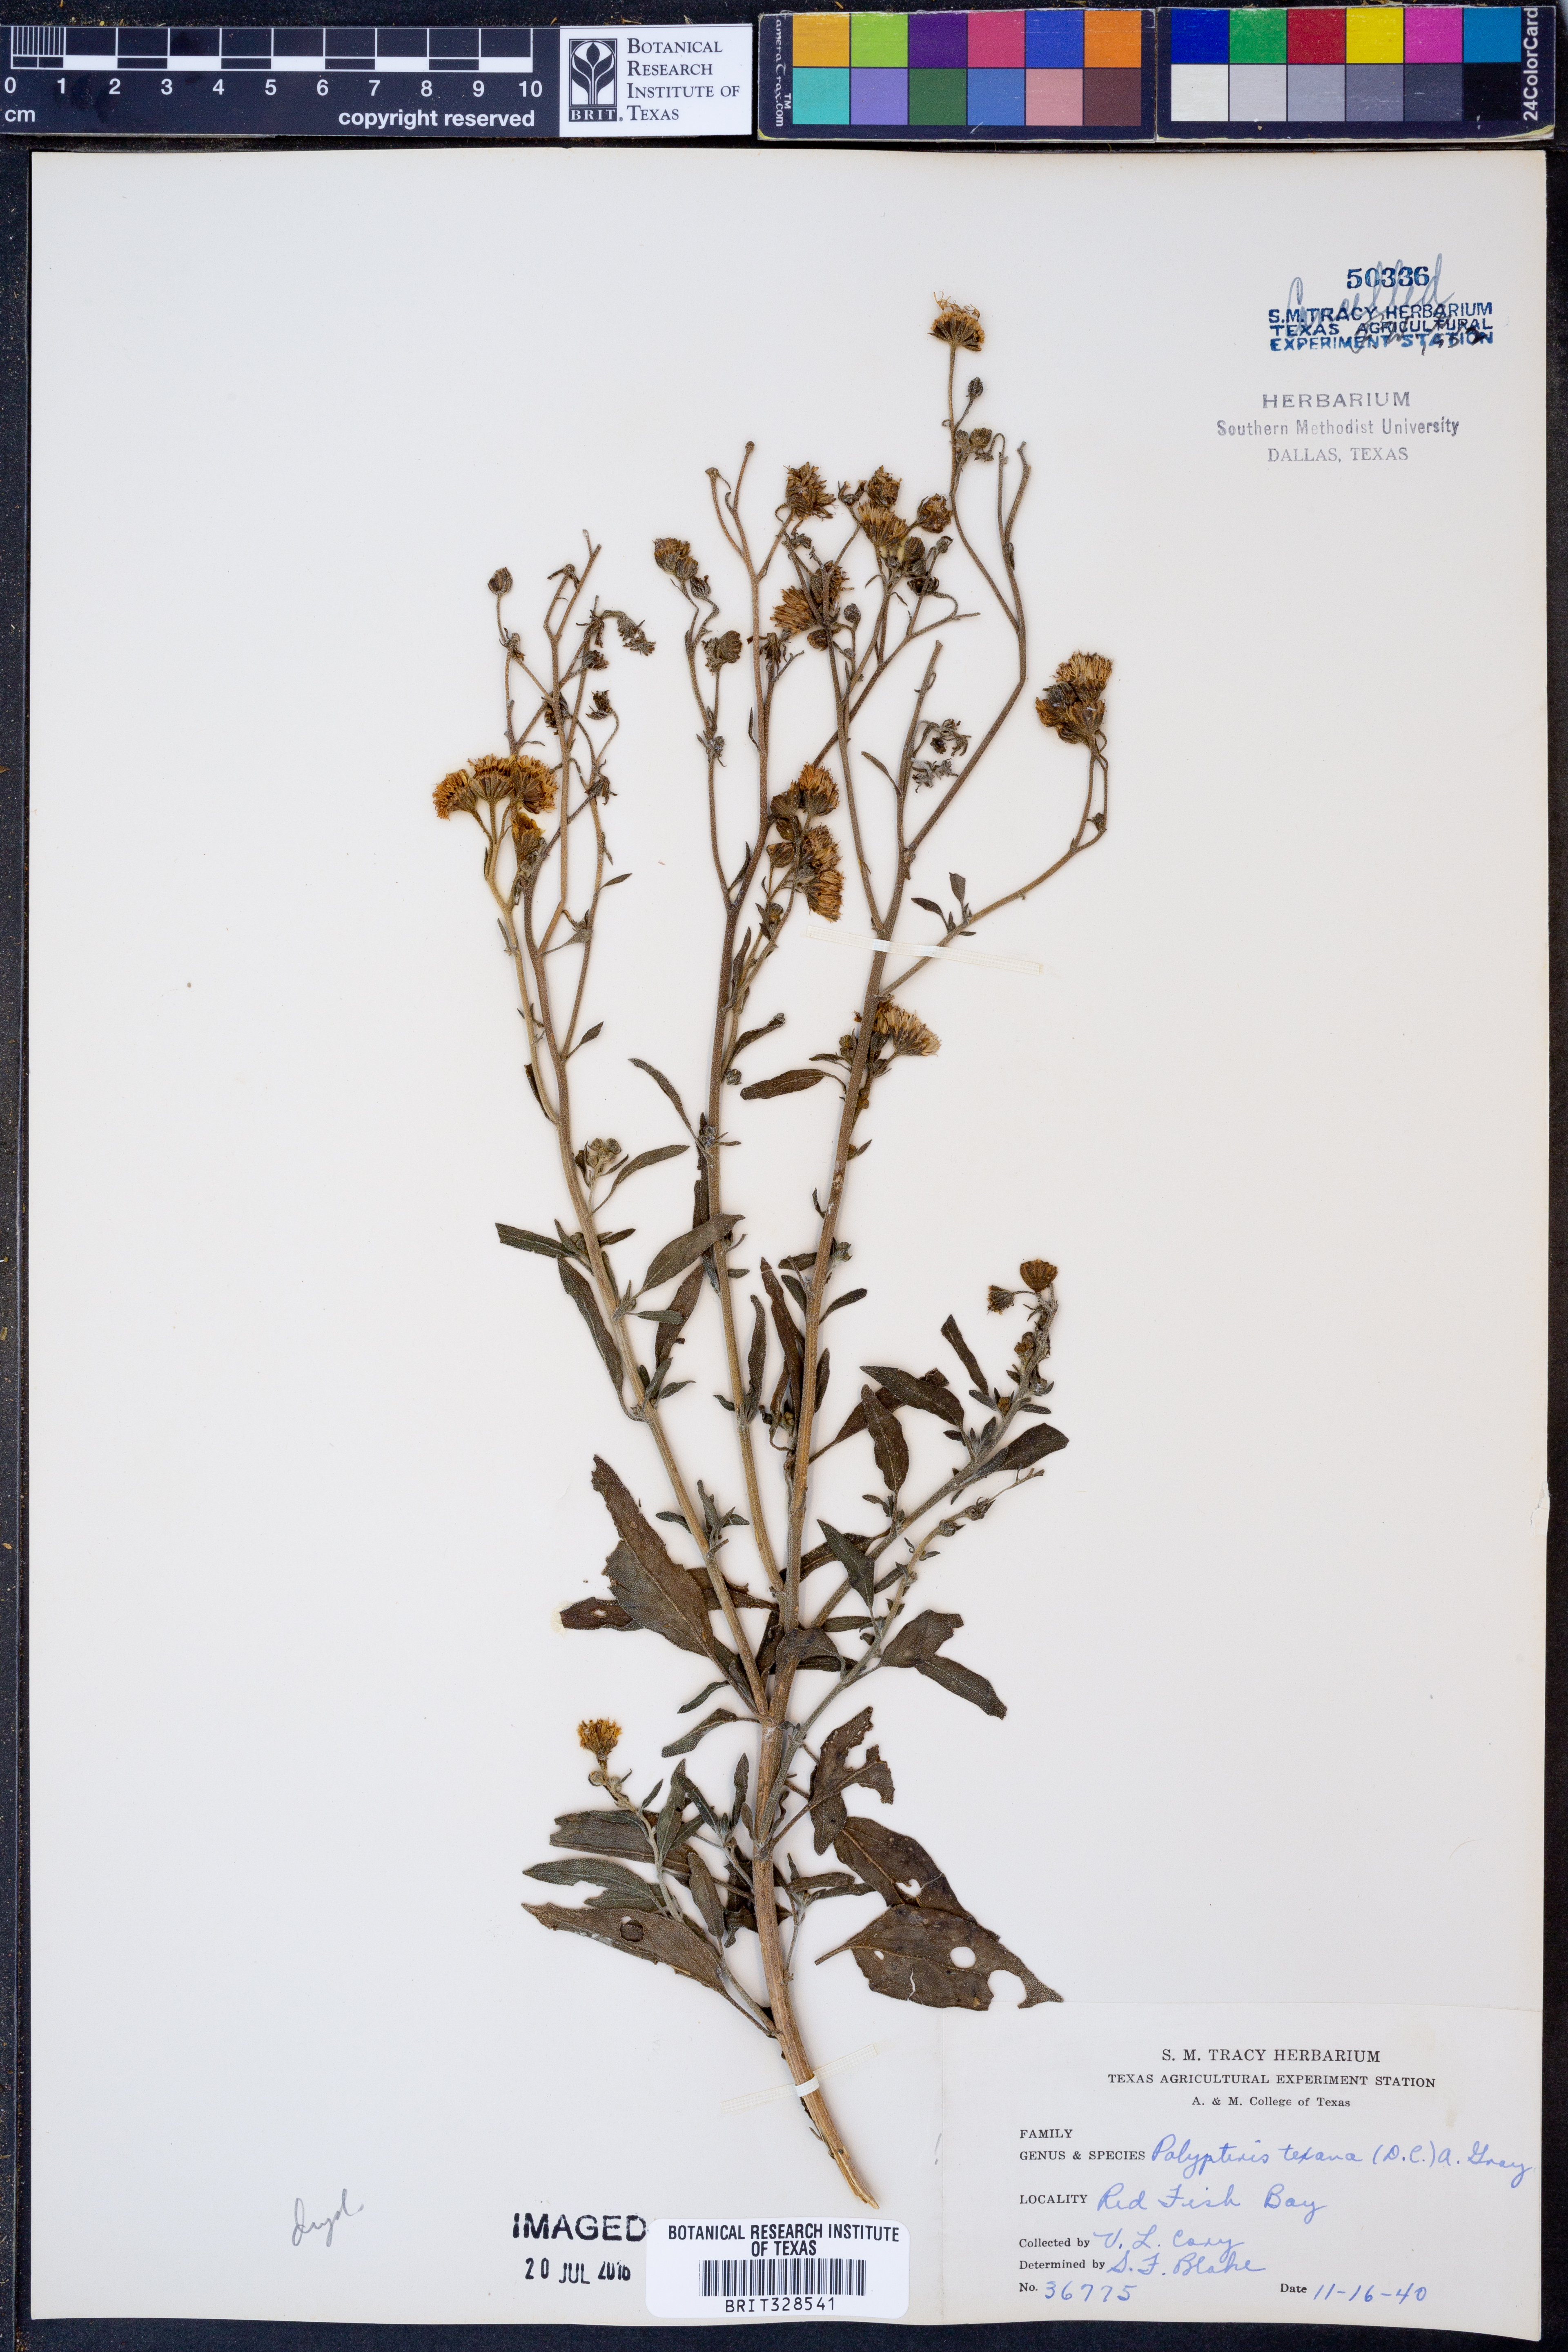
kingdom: Plantae
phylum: Tracheophyta
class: Magnoliopsida
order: Asterales
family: Asteraceae
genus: Palafoxia
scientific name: Palafoxia texana
